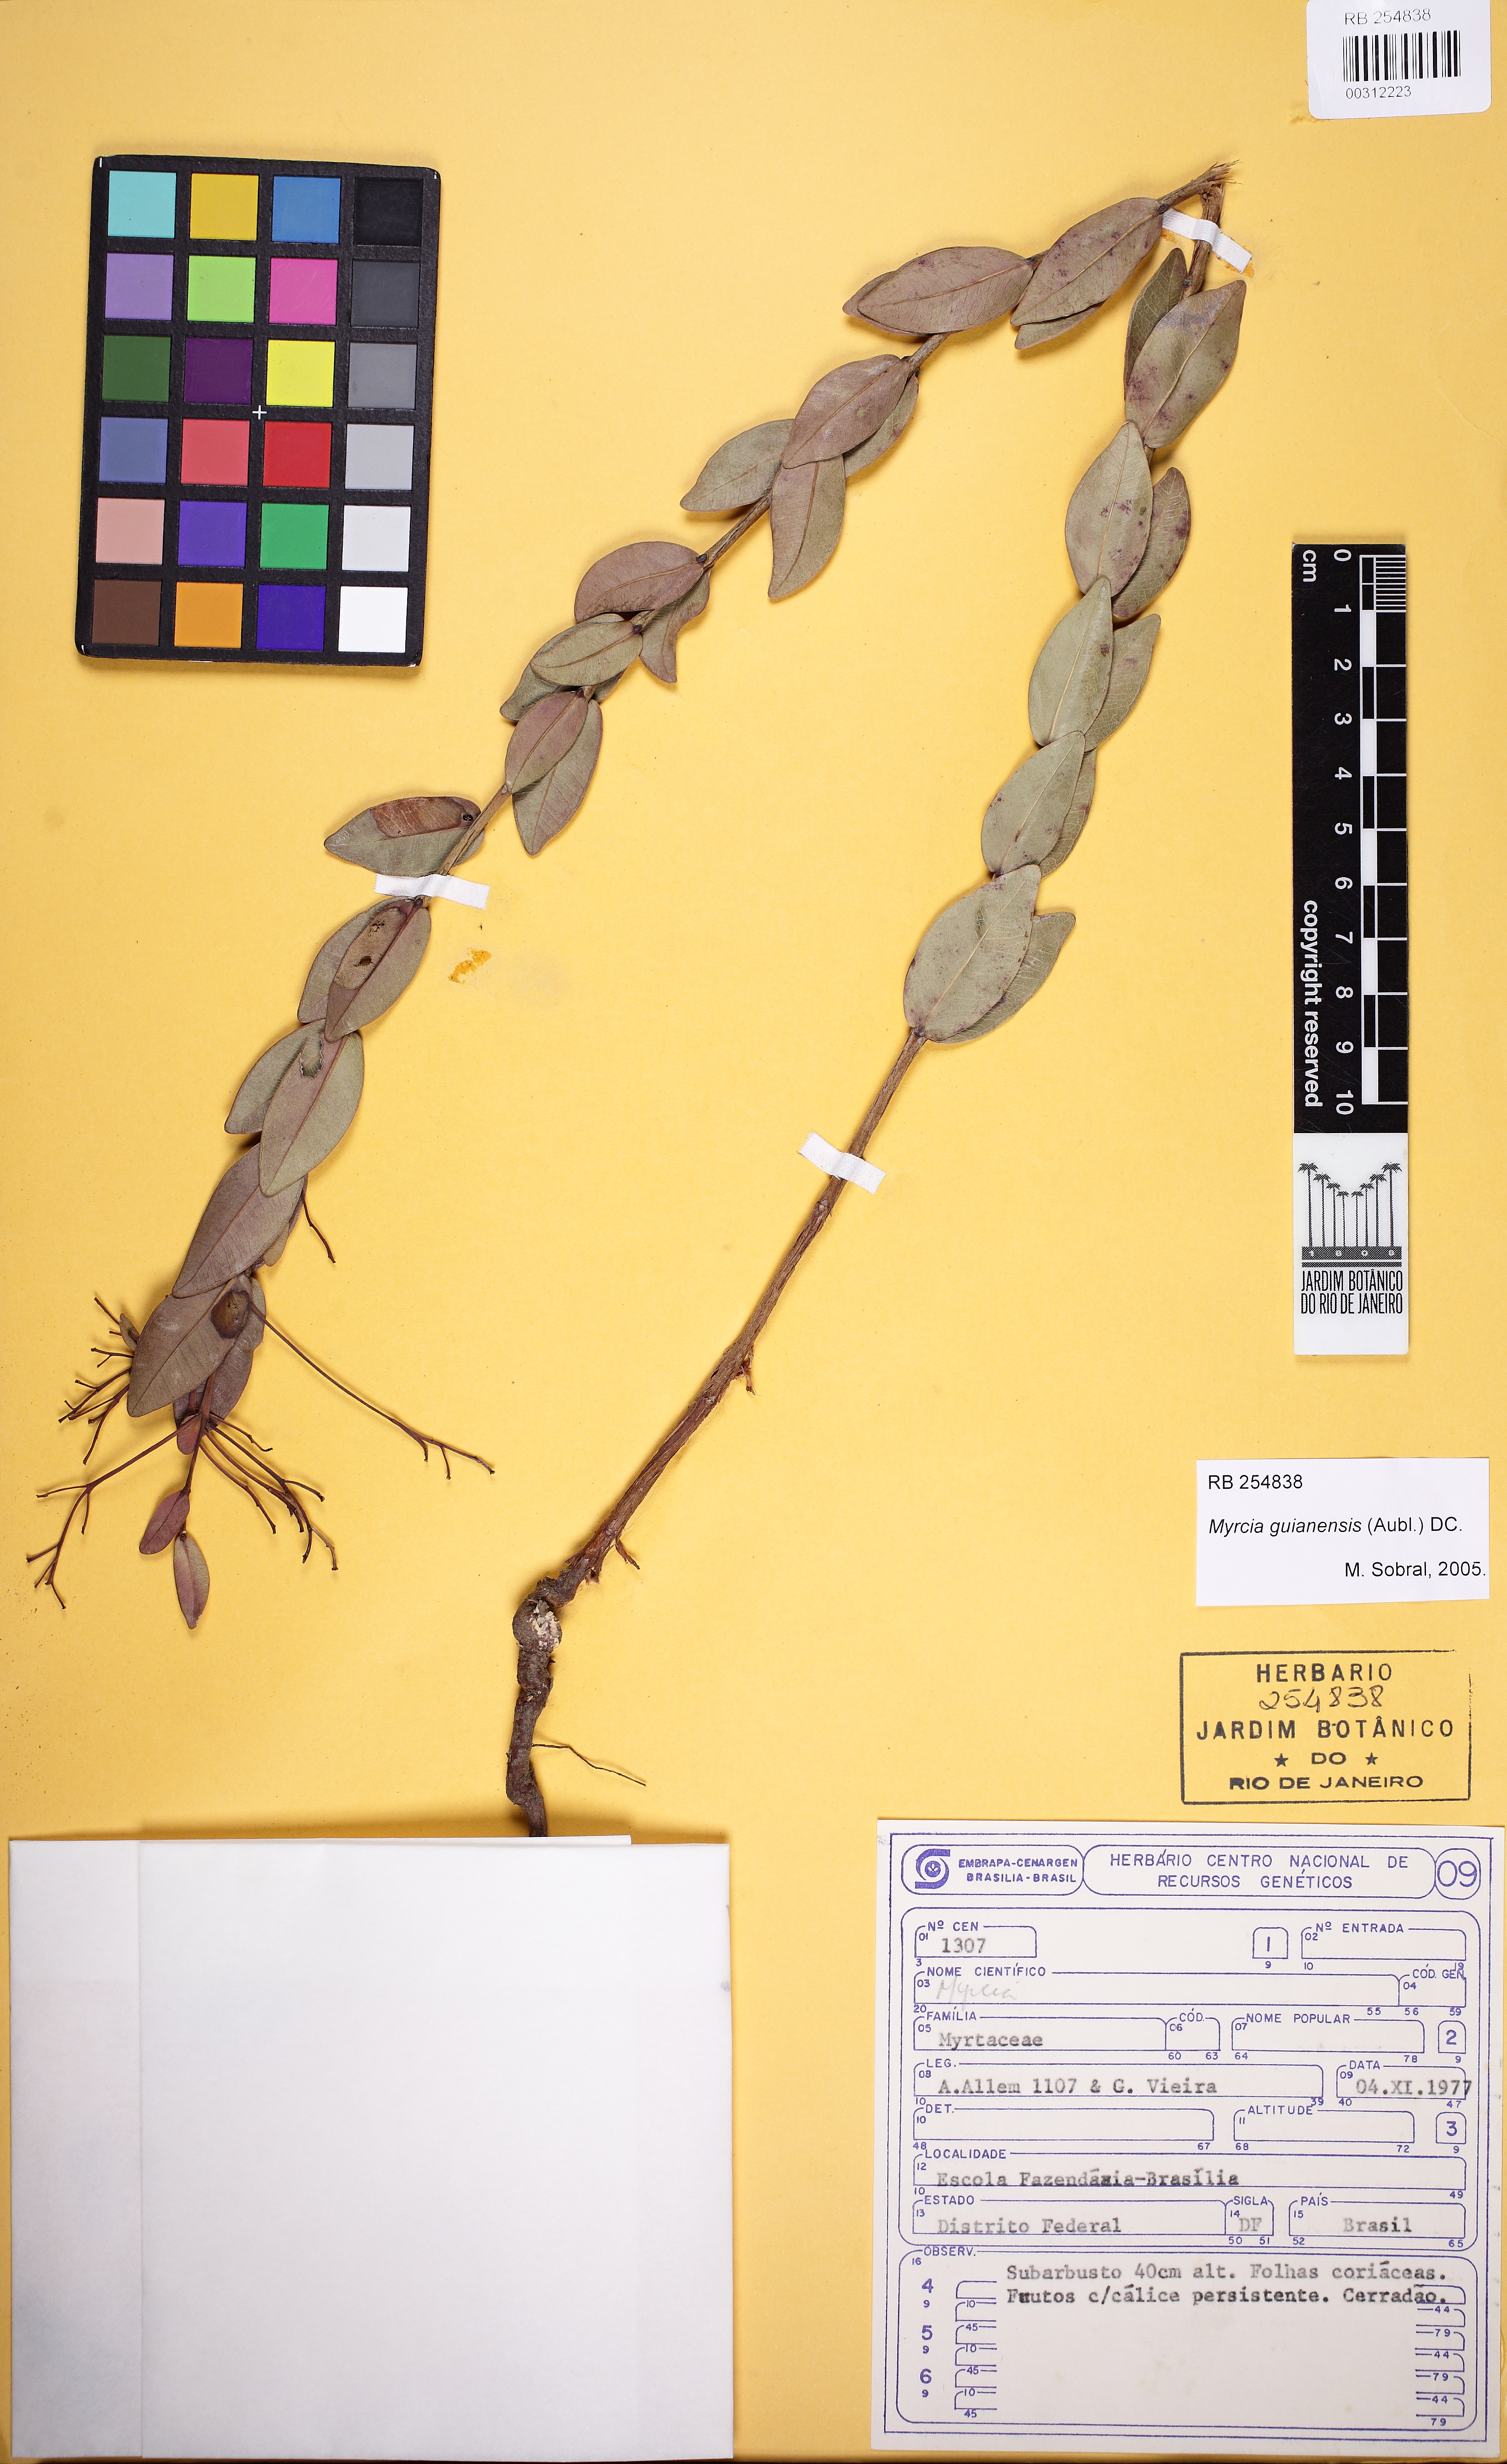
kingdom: Plantae
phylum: Tracheophyta
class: Magnoliopsida
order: Myrtales
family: Myrtaceae
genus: Myrcia
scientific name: Myrcia rubella
